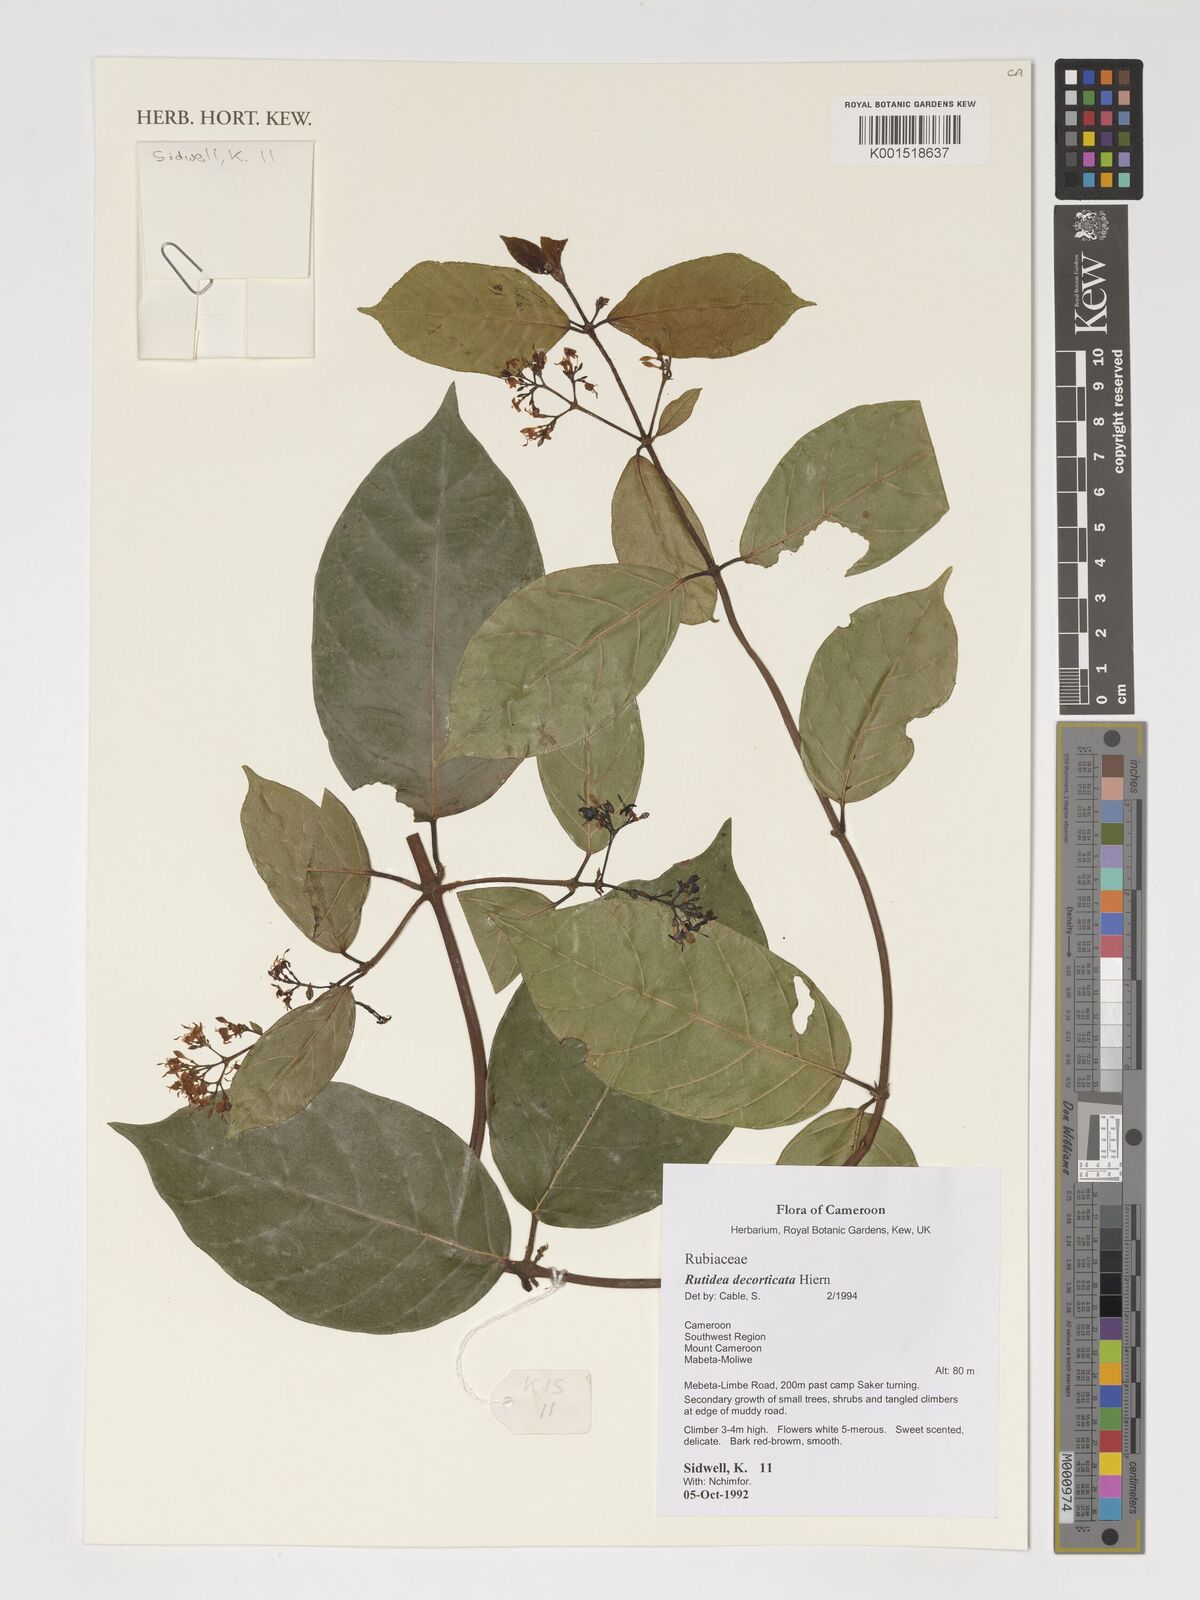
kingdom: Plantae
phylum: Tracheophyta
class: Magnoliopsida
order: Gentianales
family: Rubiaceae
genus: Rutidea
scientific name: Rutidea decorticata
